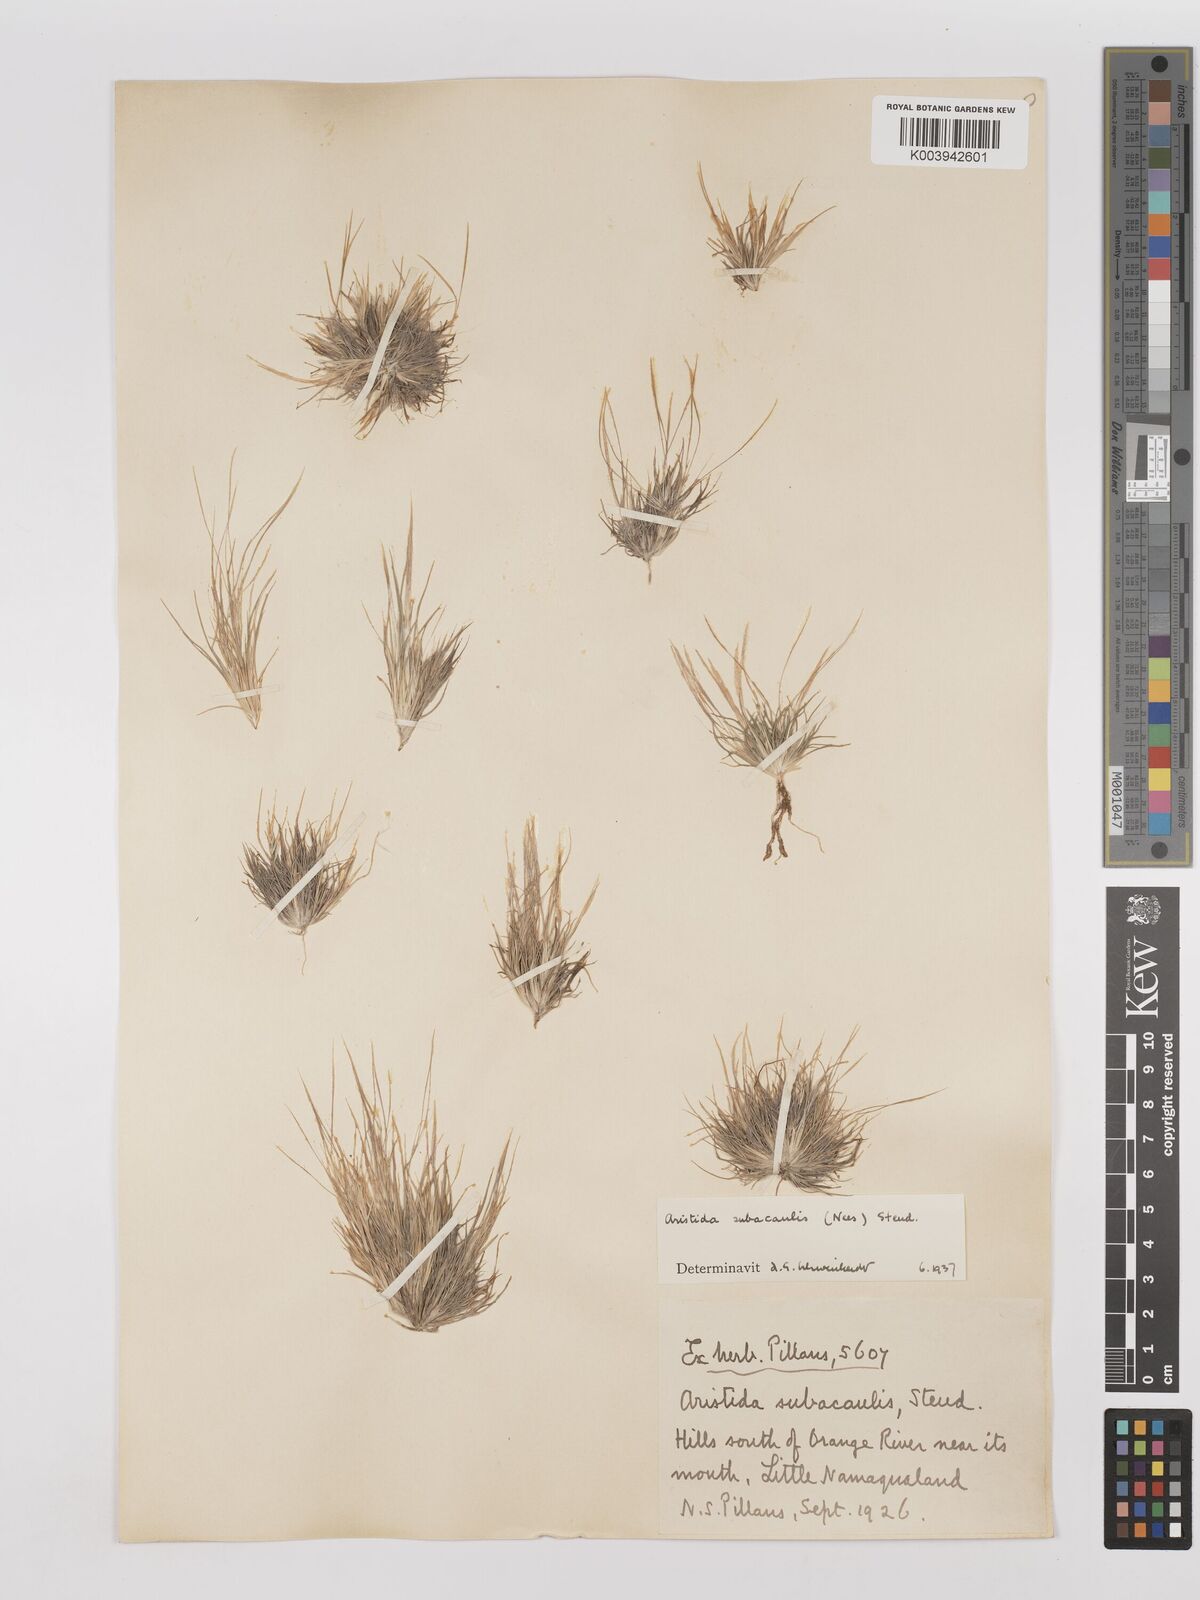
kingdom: Plantae
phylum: Tracheophyta
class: Liliopsida
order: Poales
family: Poaceae
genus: Stipagrostis
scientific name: Stipagrostis subacaulis
